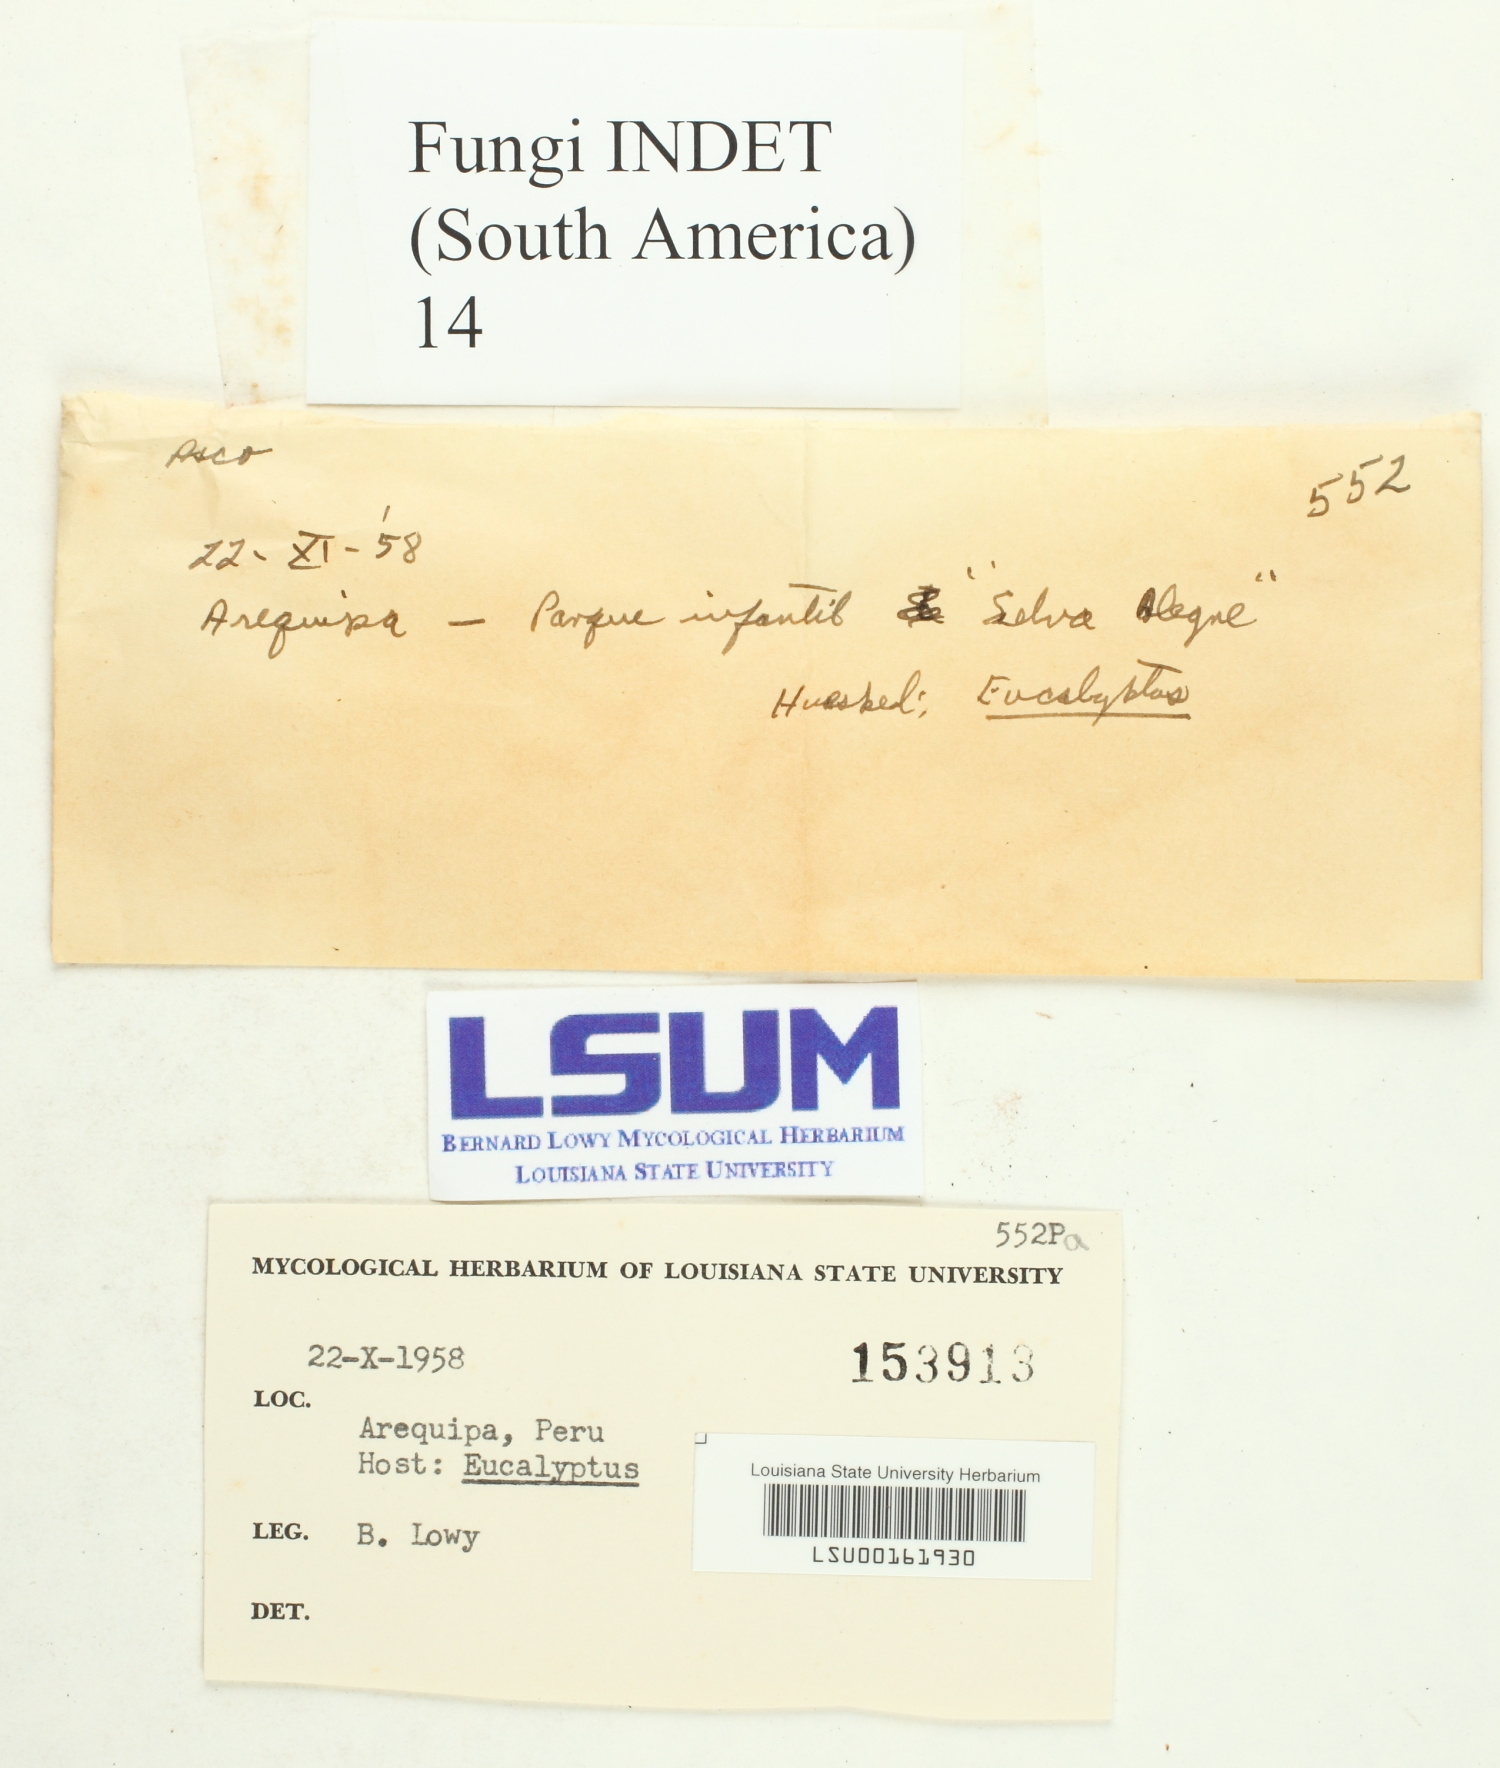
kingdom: Fungi
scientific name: Fungi
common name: Fungi
